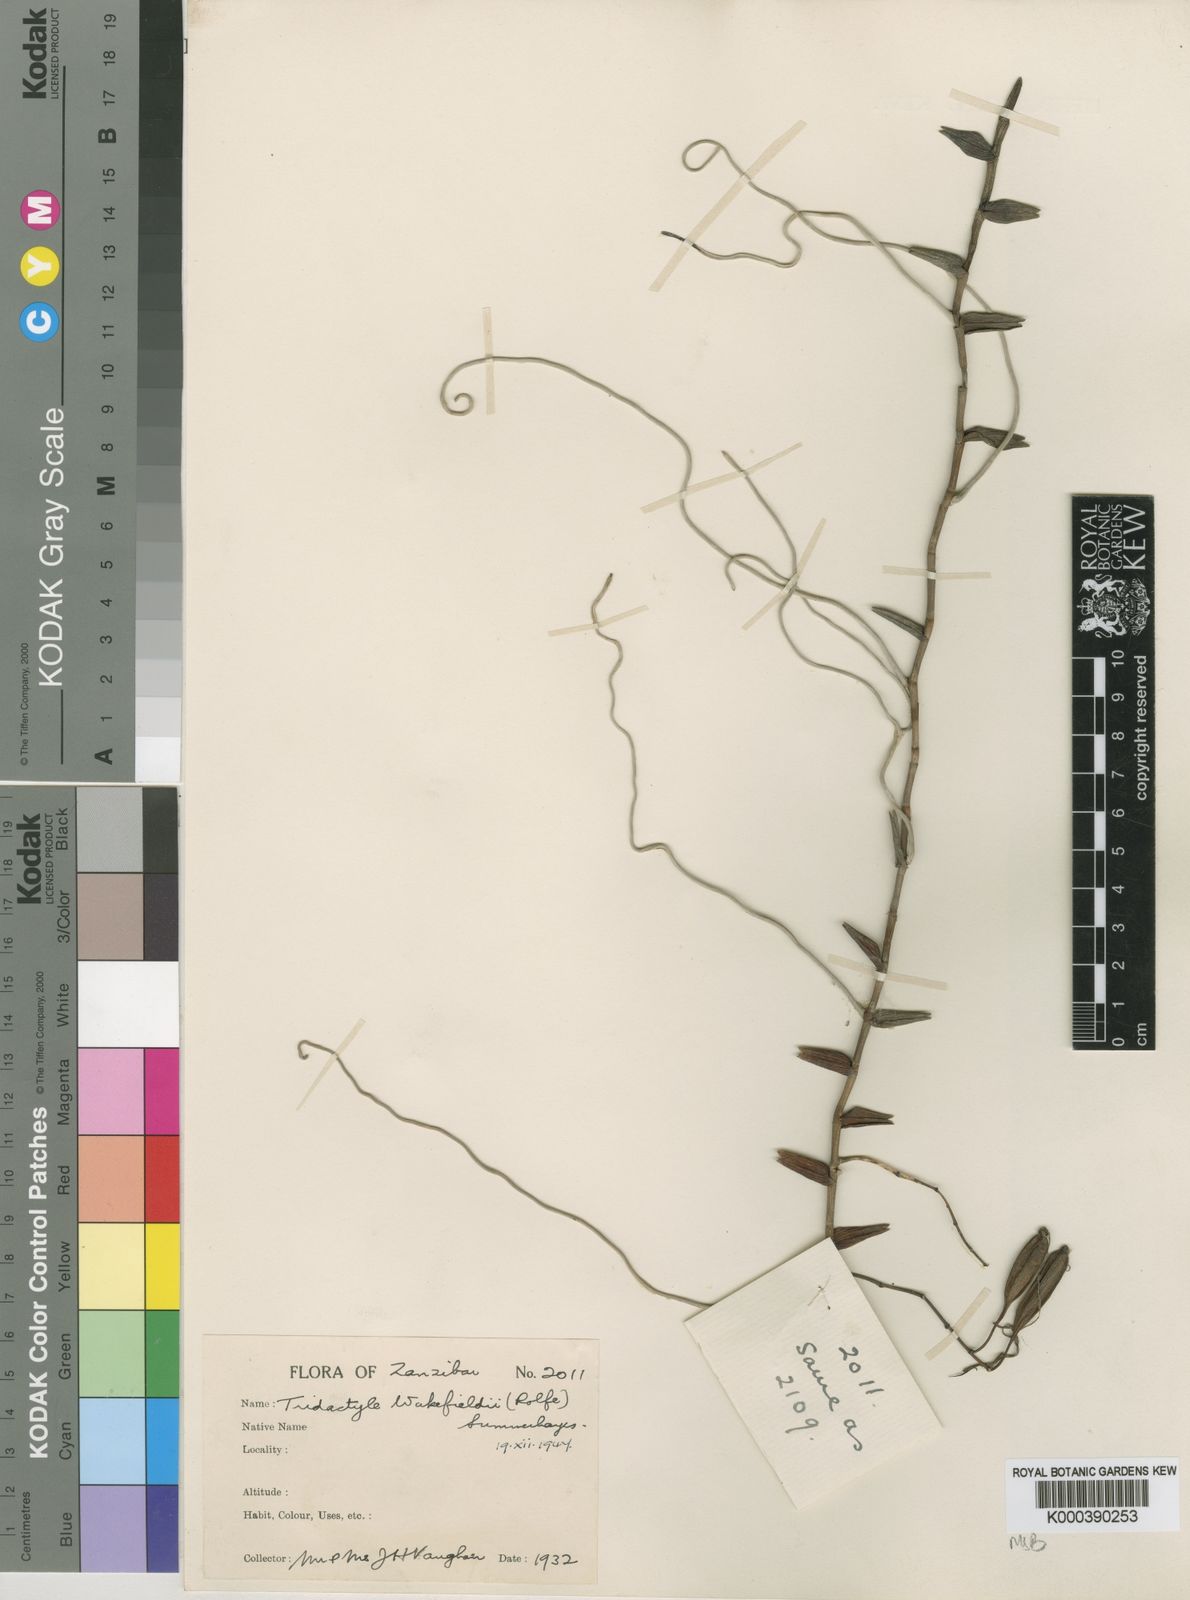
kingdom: Plantae
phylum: Tracheophyta
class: Liliopsida
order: Asparagales
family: Orchidaceae
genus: Solenangis
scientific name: Solenangis wakefieldii
